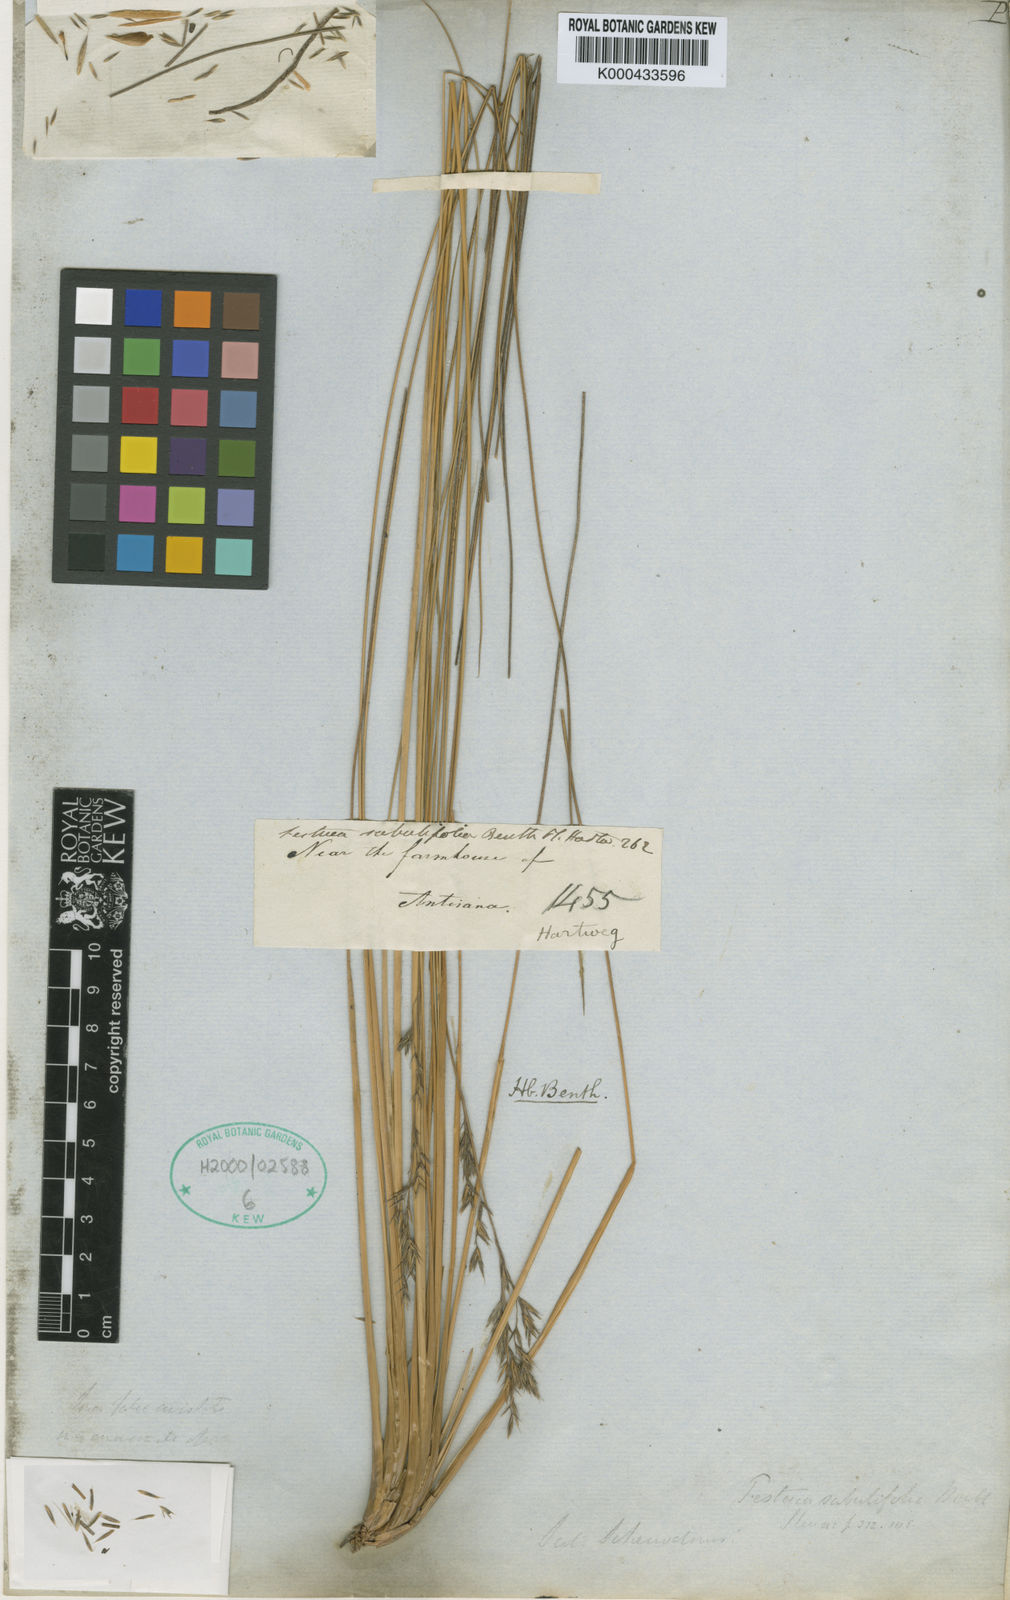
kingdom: Plantae
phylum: Tracheophyta
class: Liliopsida
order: Poales
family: Poaceae
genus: Festuca
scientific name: Festuca dolichophylla
